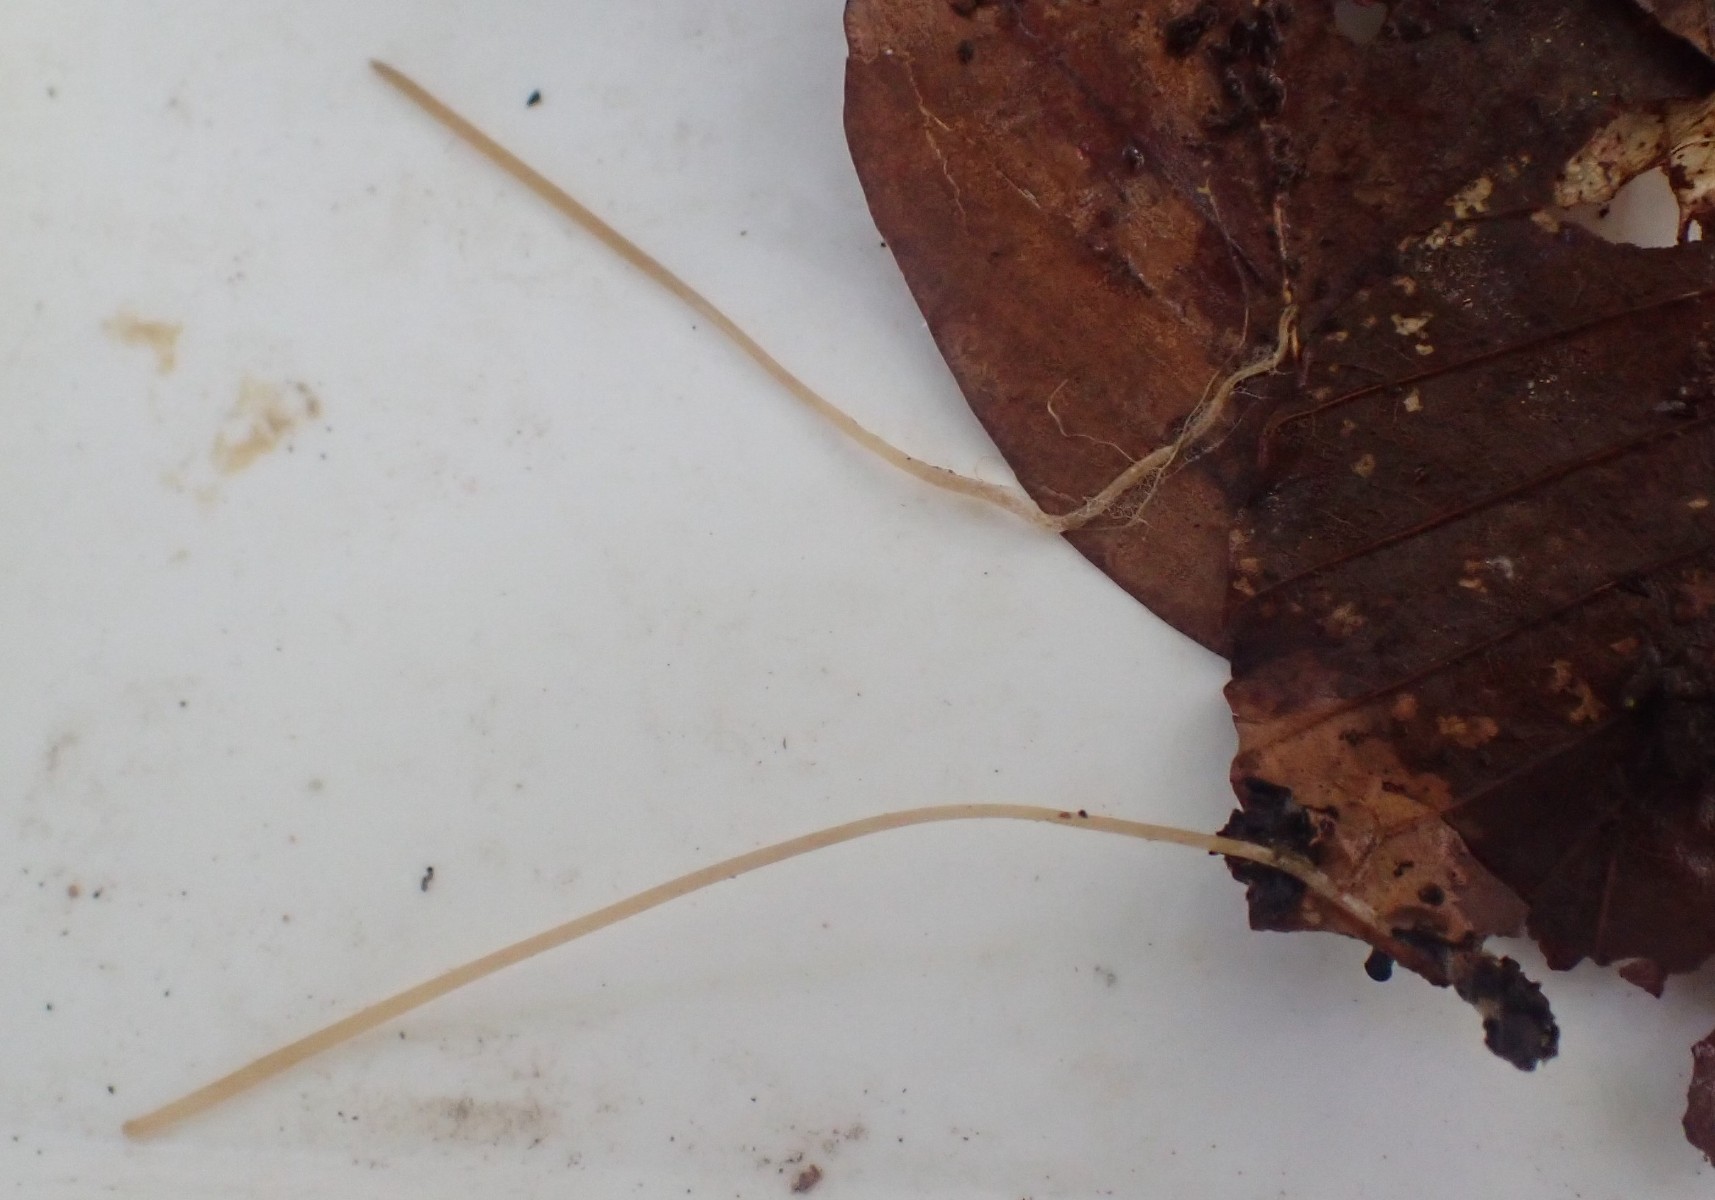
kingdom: Fungi
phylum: Basidiomycota
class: Agaricomycetes
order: Agaricales
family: Typhulaceae
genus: Typhula
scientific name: Typhula juncea
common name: trådagtig rørkølle
